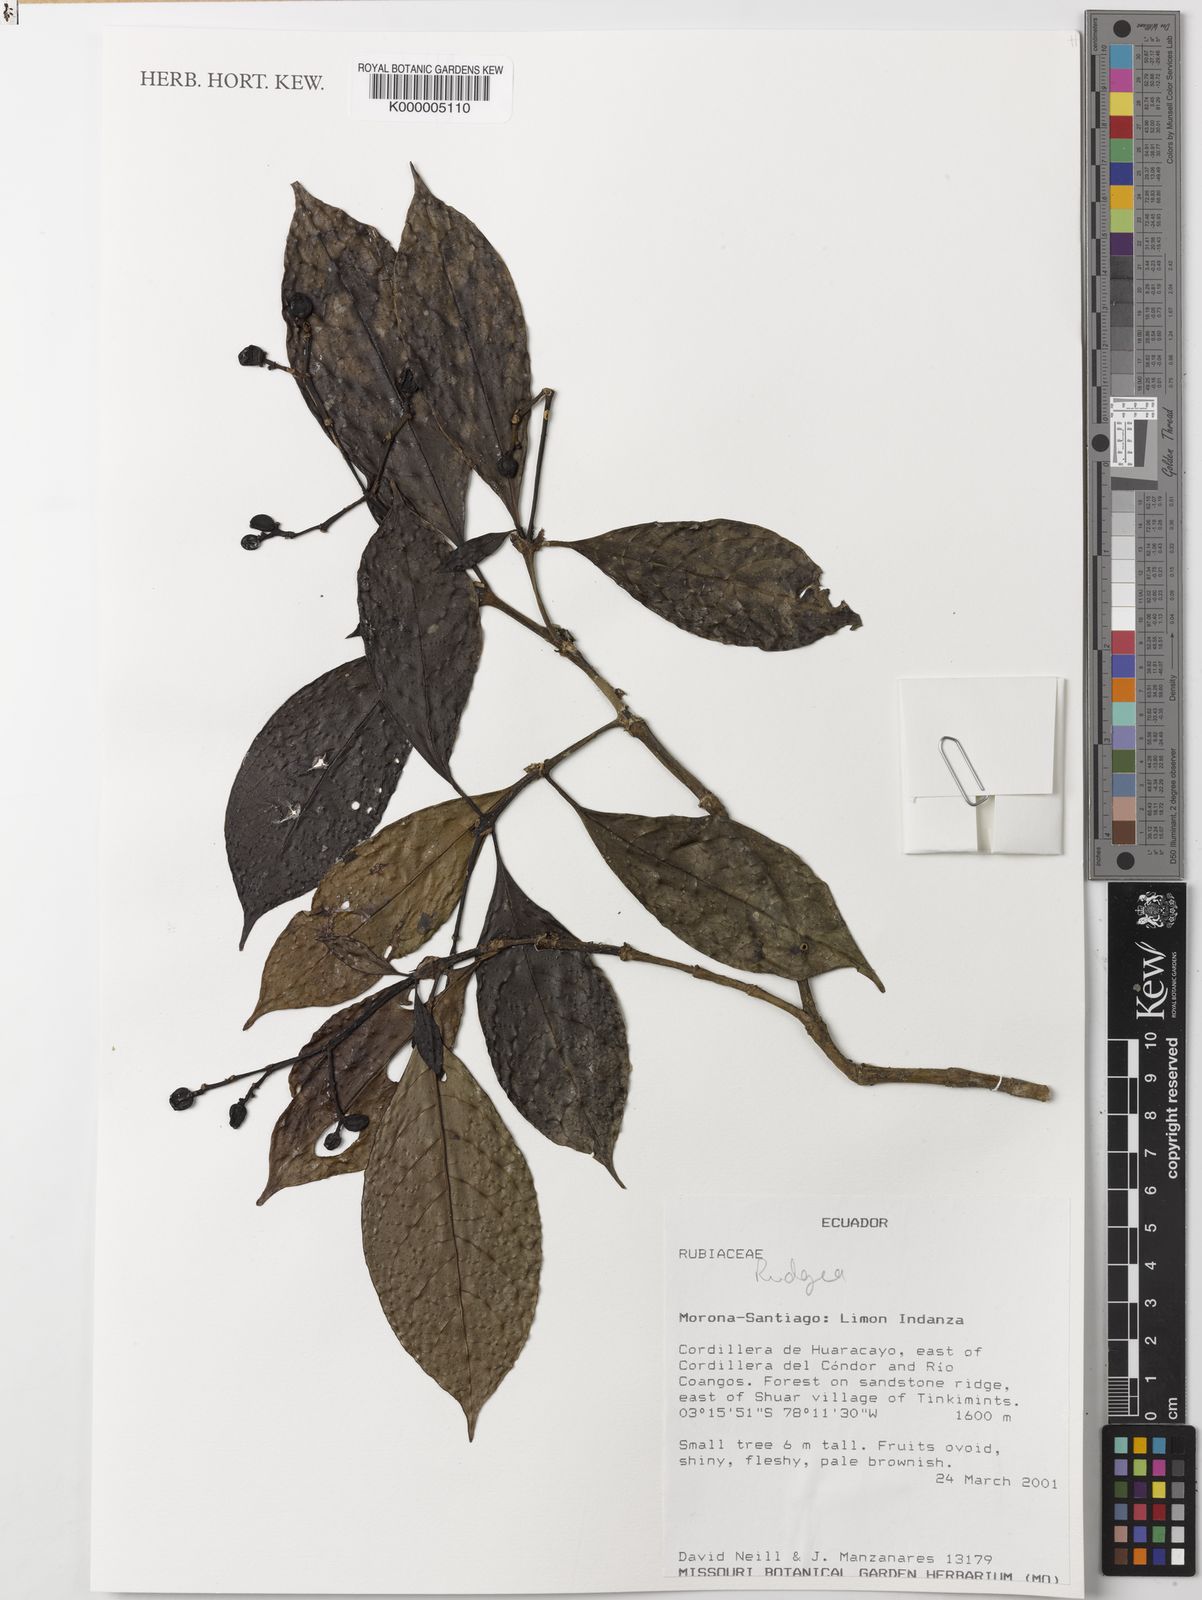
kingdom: Plantae
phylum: Tracheophyta
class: Magnoliopsida
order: Gentianales
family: Rubiaceae
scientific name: Rubiaceae
